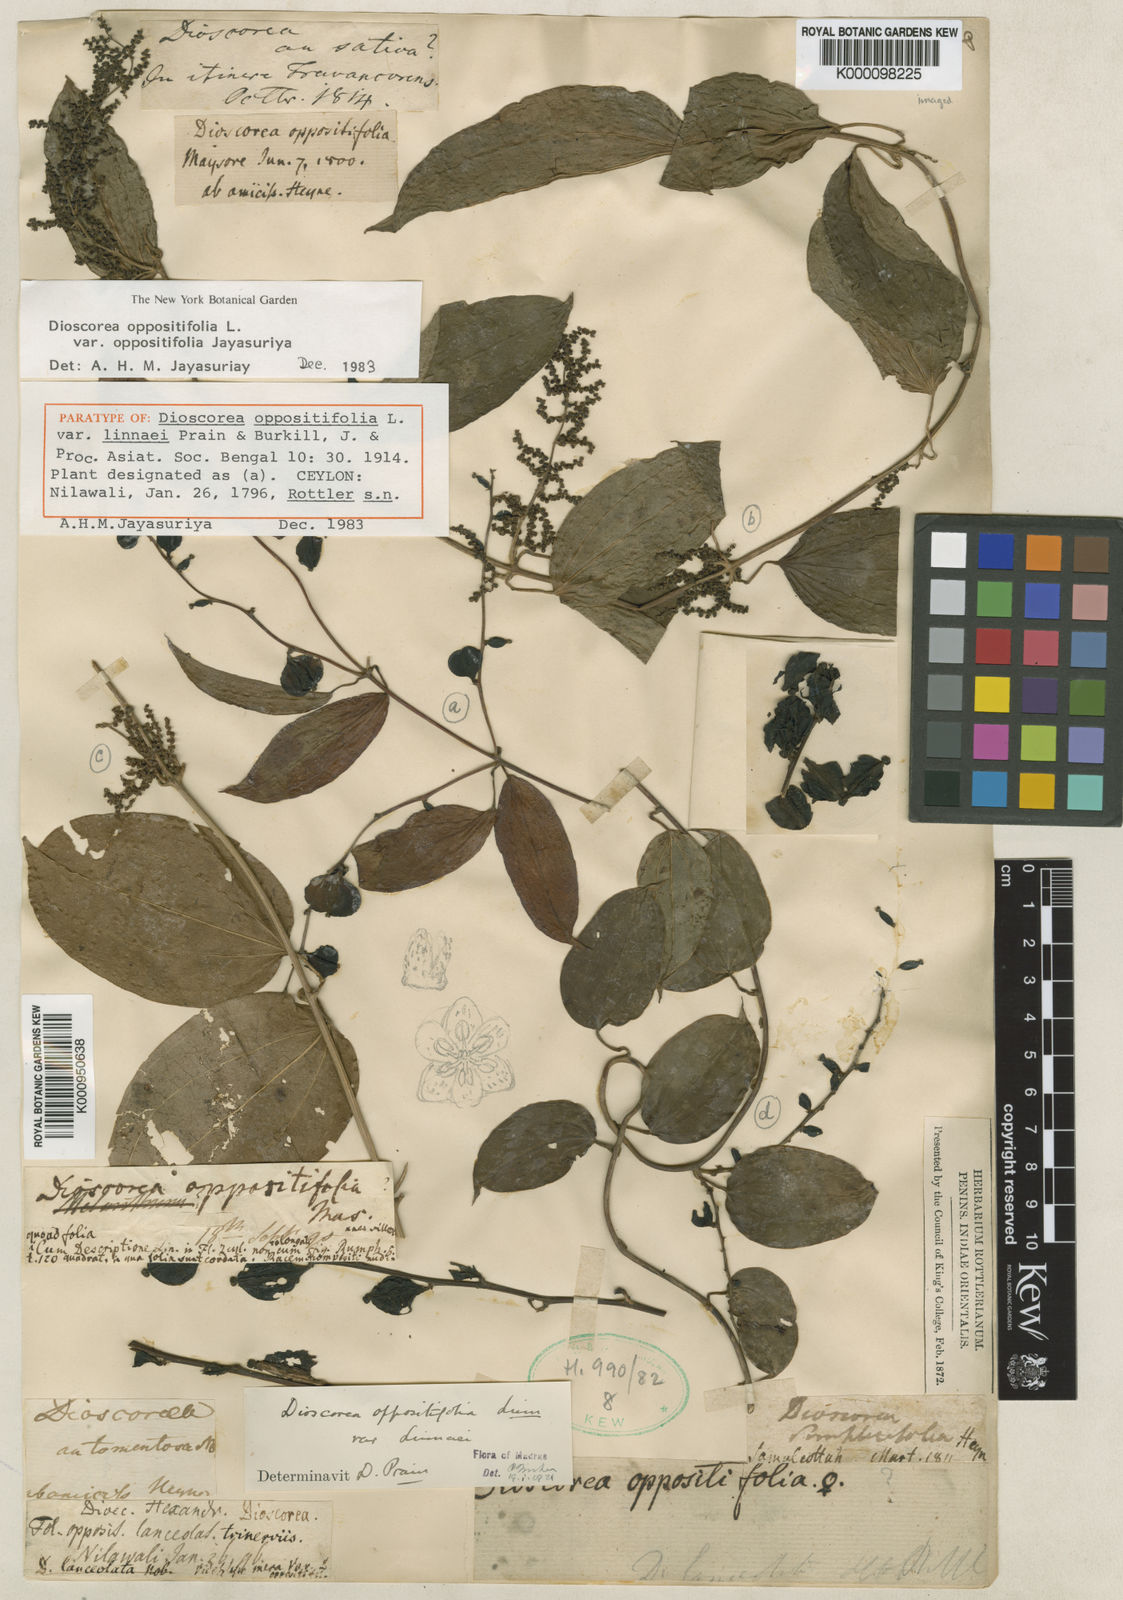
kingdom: Plantae
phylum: Tracheophyta
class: Liliopsida
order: Dioscoreales
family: Dioscoreaceae
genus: Dioscorea
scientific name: Dioscorea oppositifolia
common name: Chinese yam
